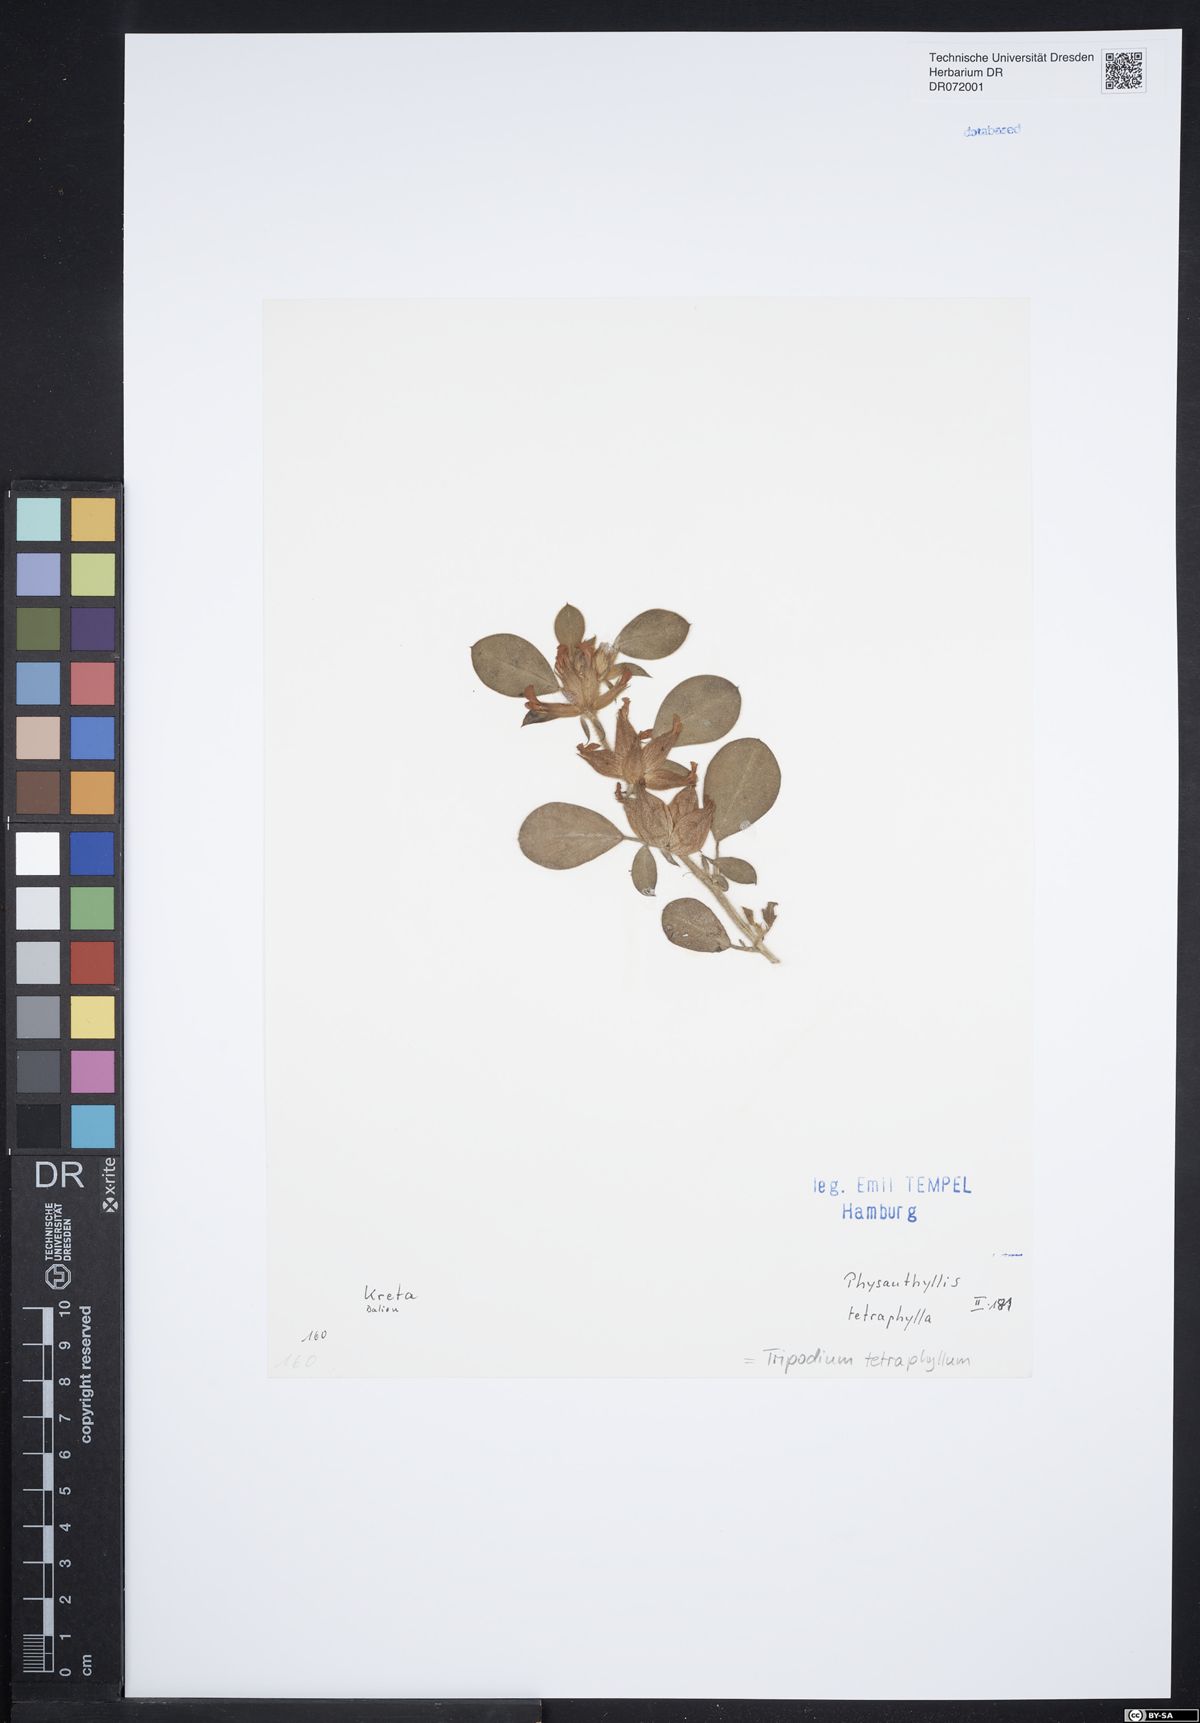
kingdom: Plantae
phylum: Tracheophyta
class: Magnoliopsida
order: Fabales
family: Fabaceae
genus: Tripodion
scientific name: Tripodion tetraphyllum
